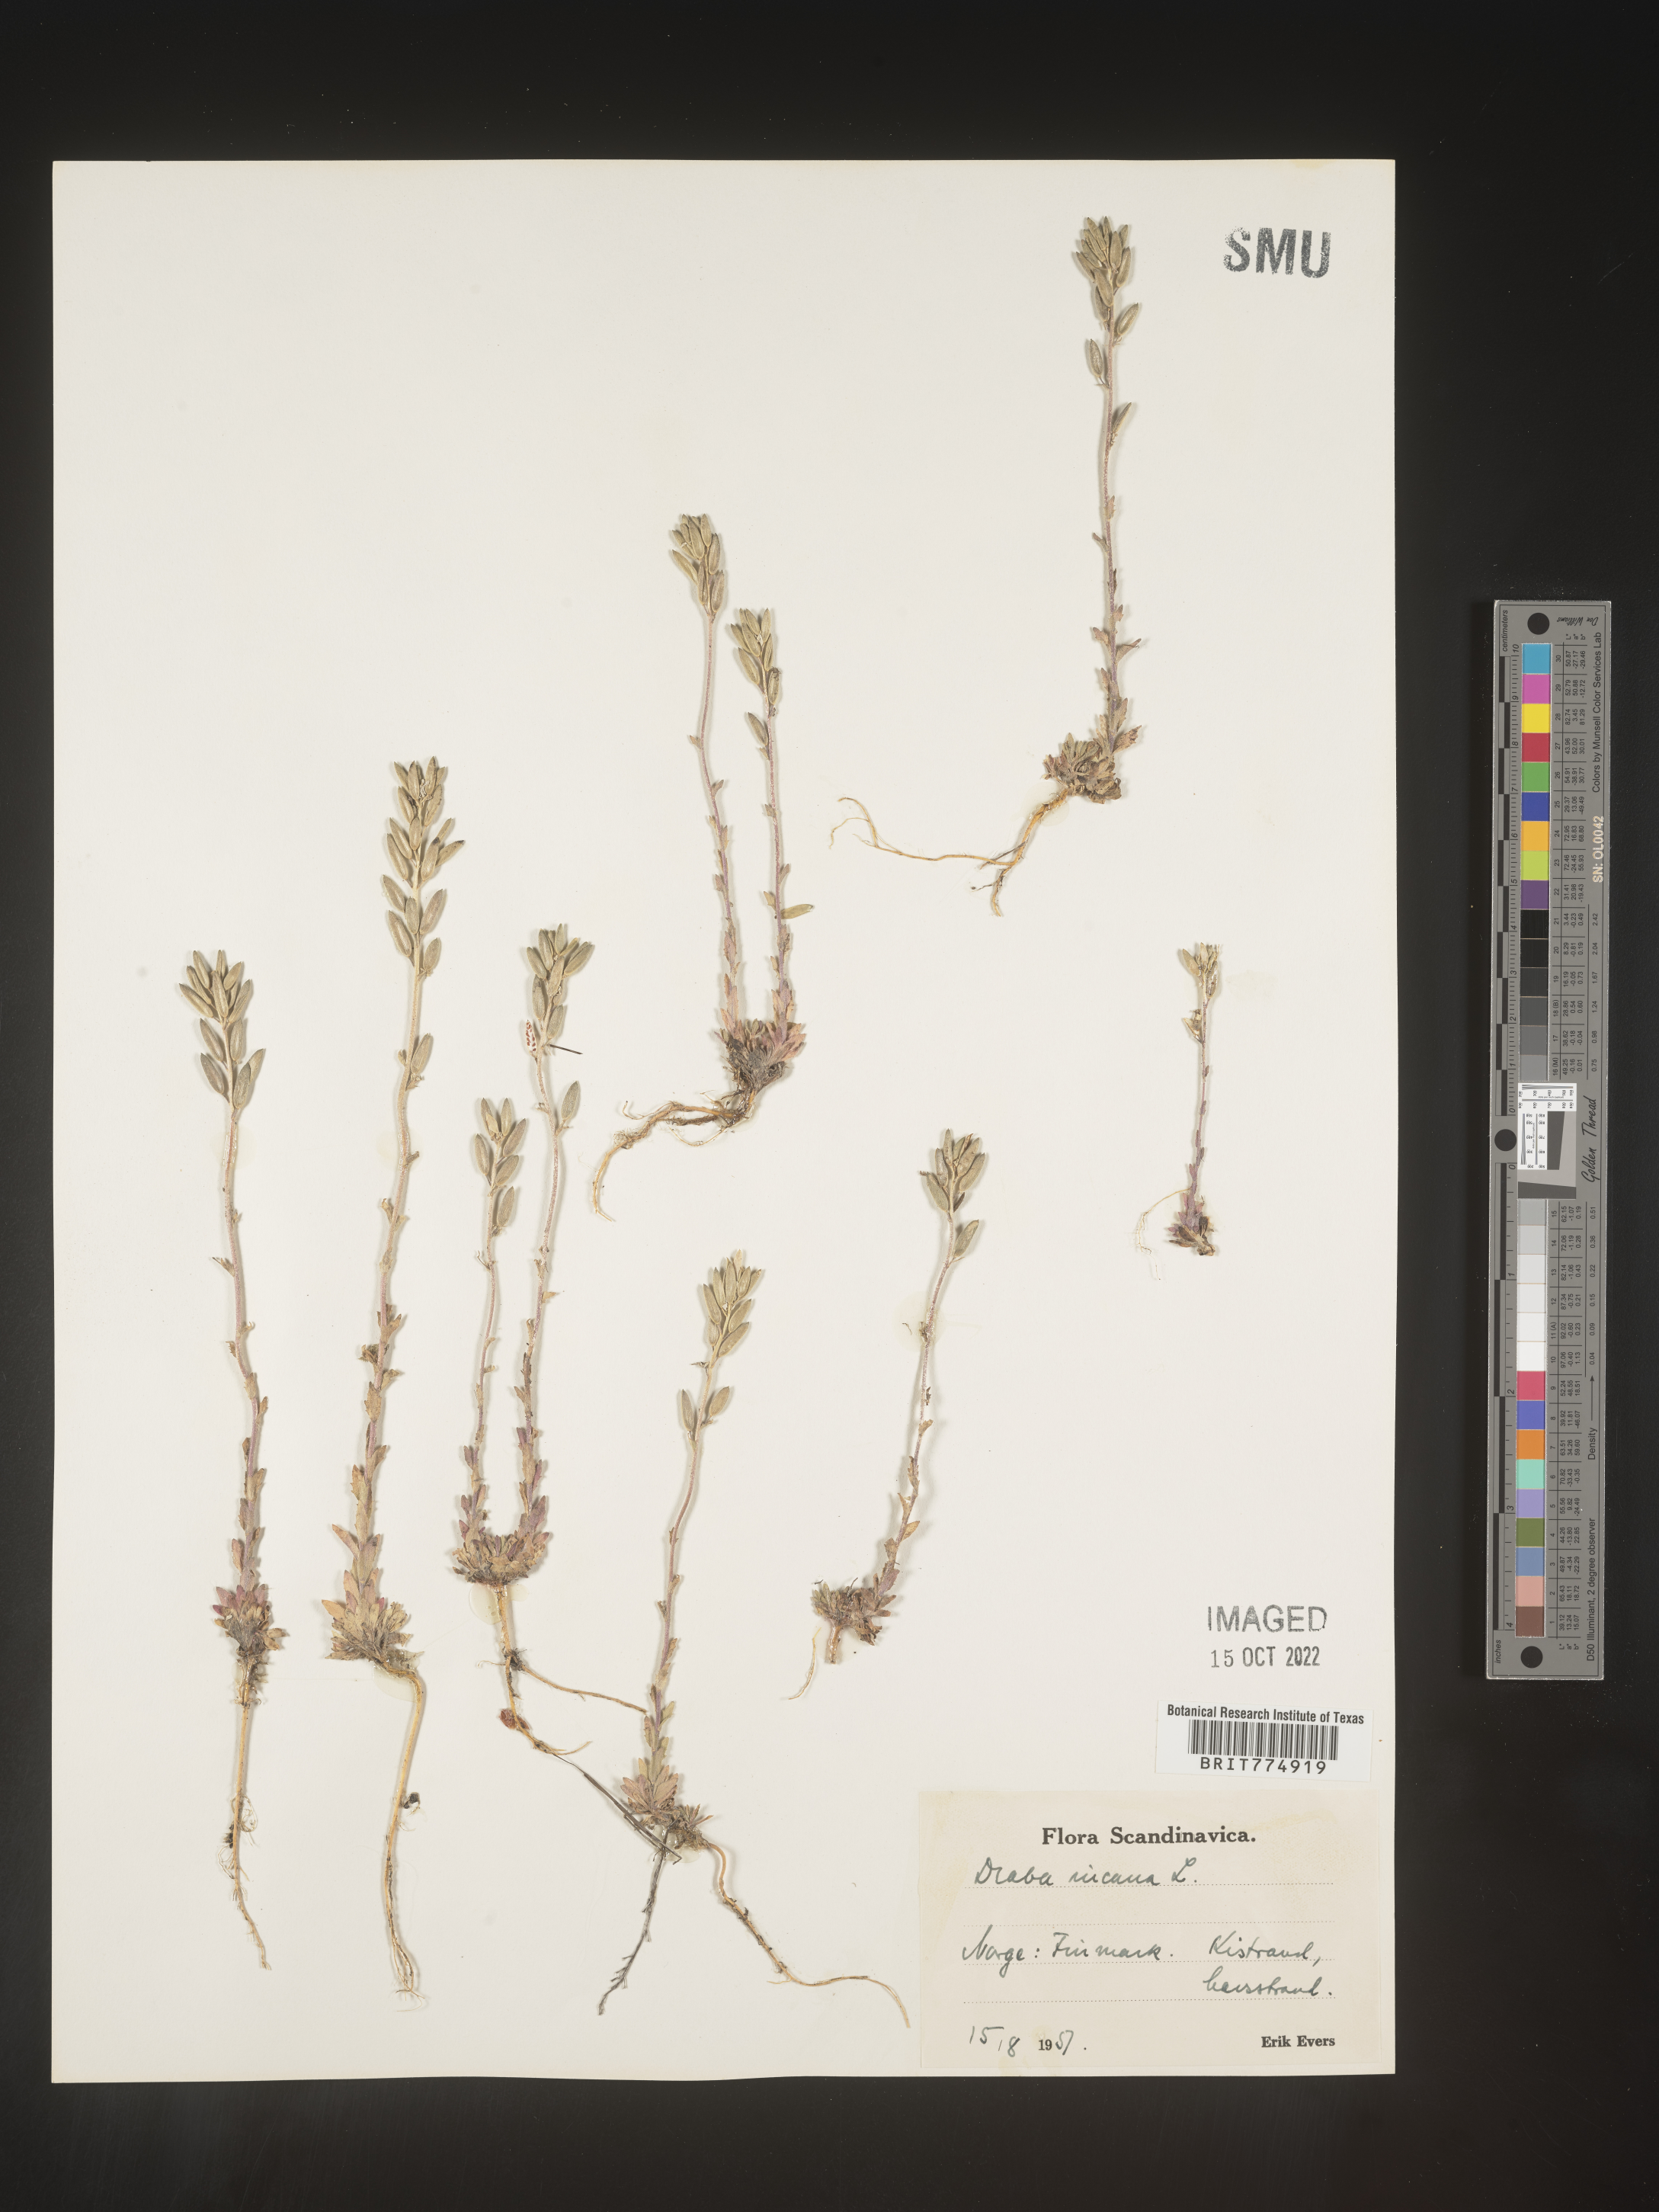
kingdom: Plantae
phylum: Tracheophyta
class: Magnoliopsida
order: Brassicales
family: Brassicaceae
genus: Draba
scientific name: Draba
